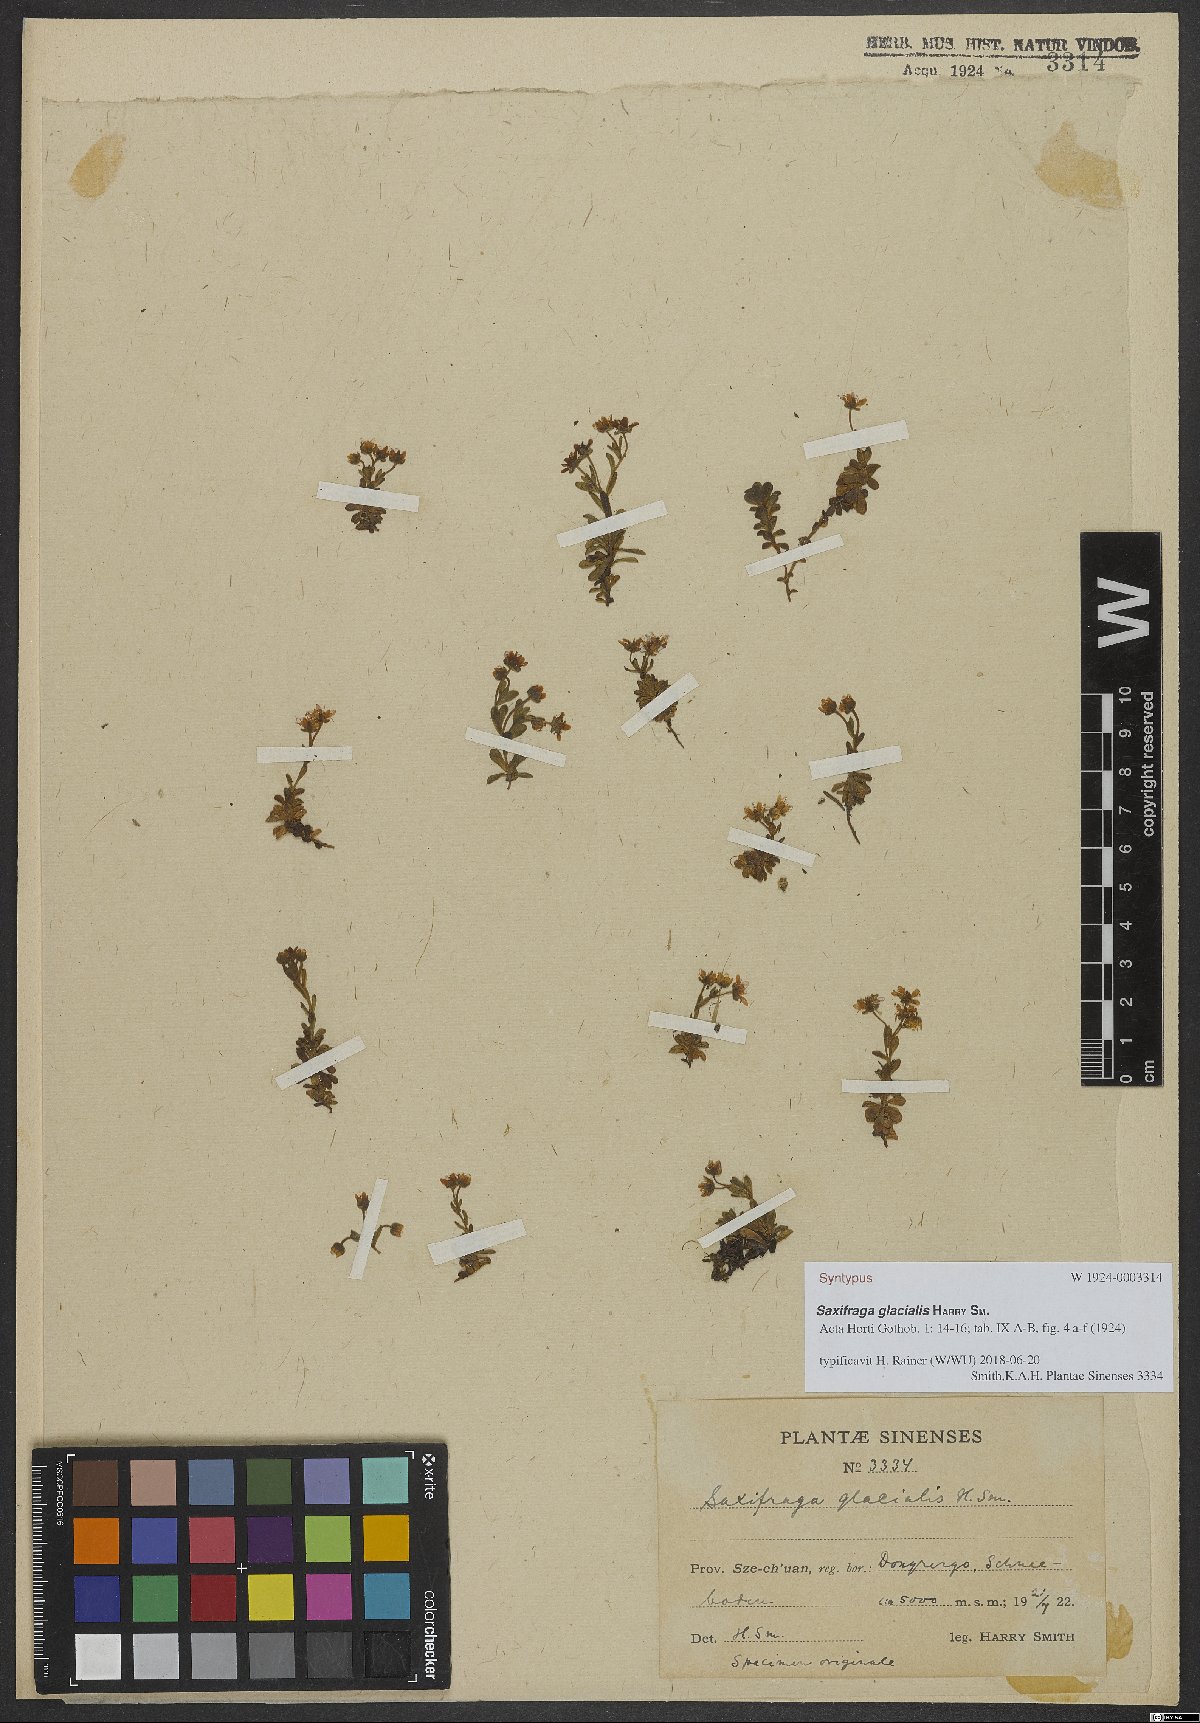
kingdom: Plantae
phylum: Tracheophyta
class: Magnoliopsida
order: Saxifragales
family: Saxifragaceae
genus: Saxifraga
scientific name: Saxifraga glacialis
